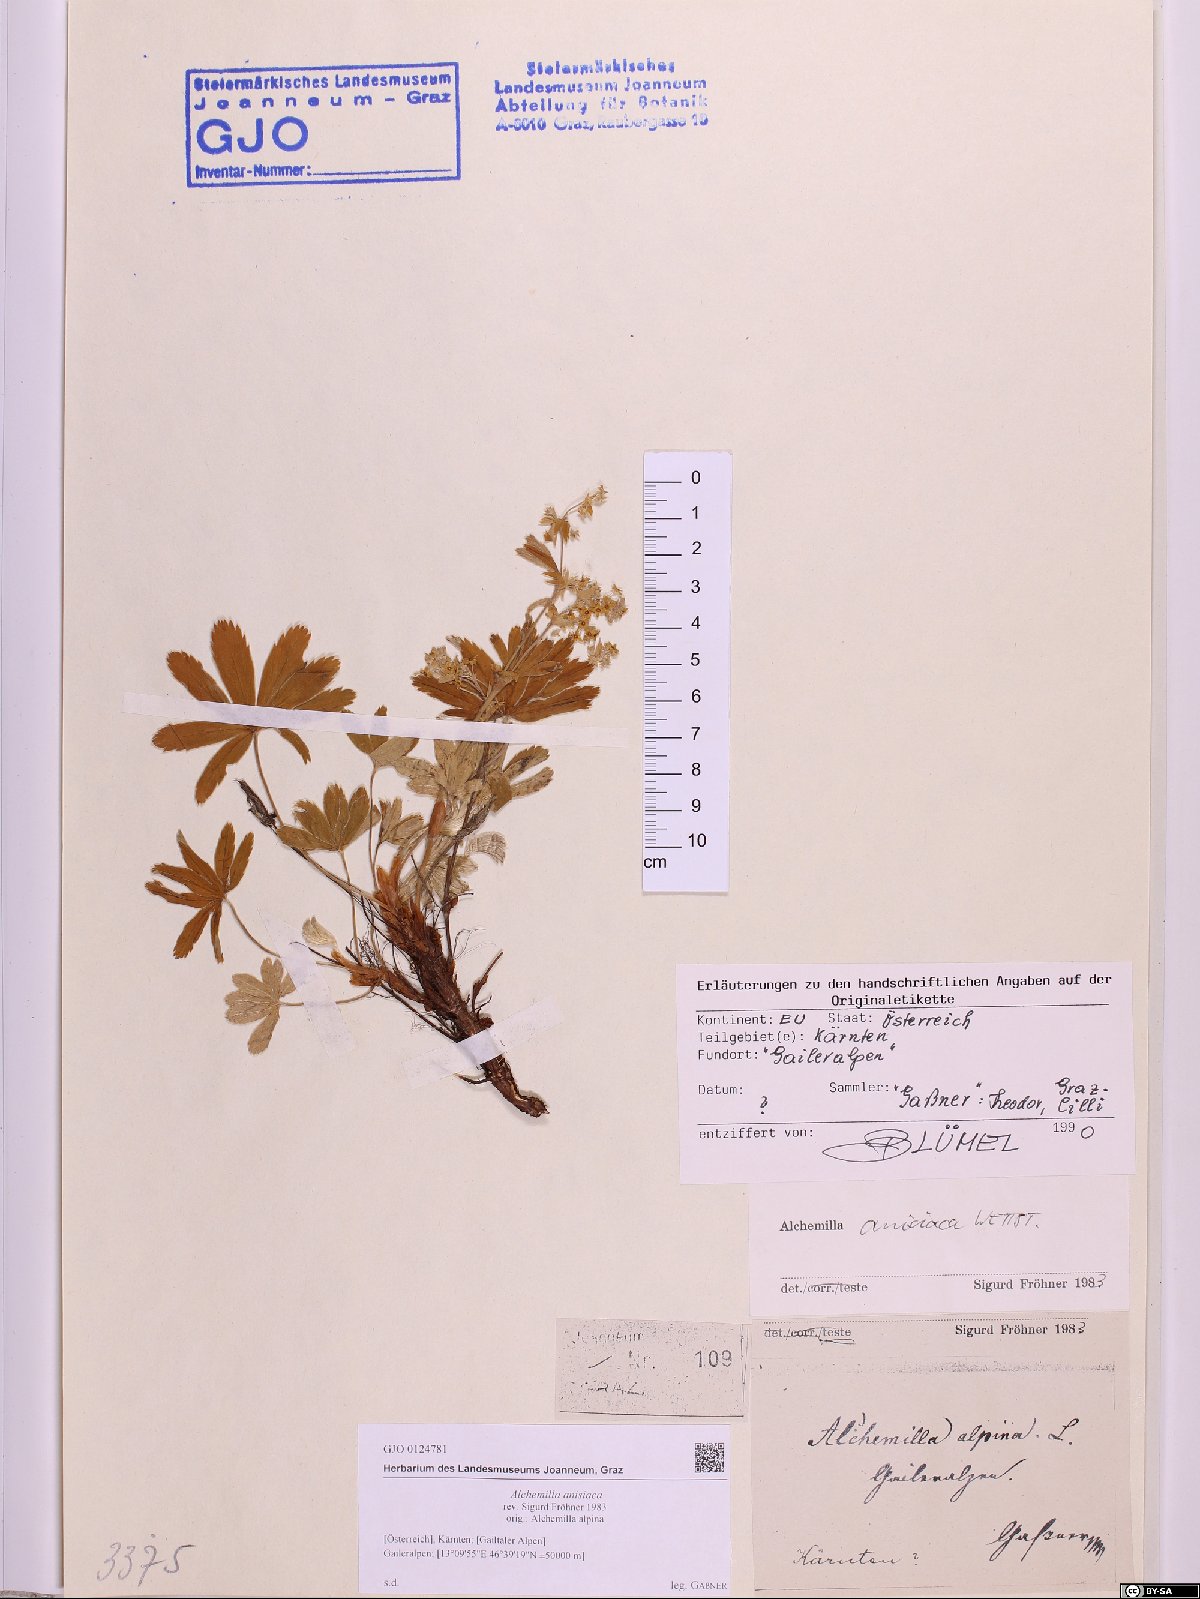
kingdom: Plantae
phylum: Tracheophyta
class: Magnoliopsida
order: Rosales
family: Rosaceae
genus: Alchemilla
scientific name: Alchemilla anisiaca
